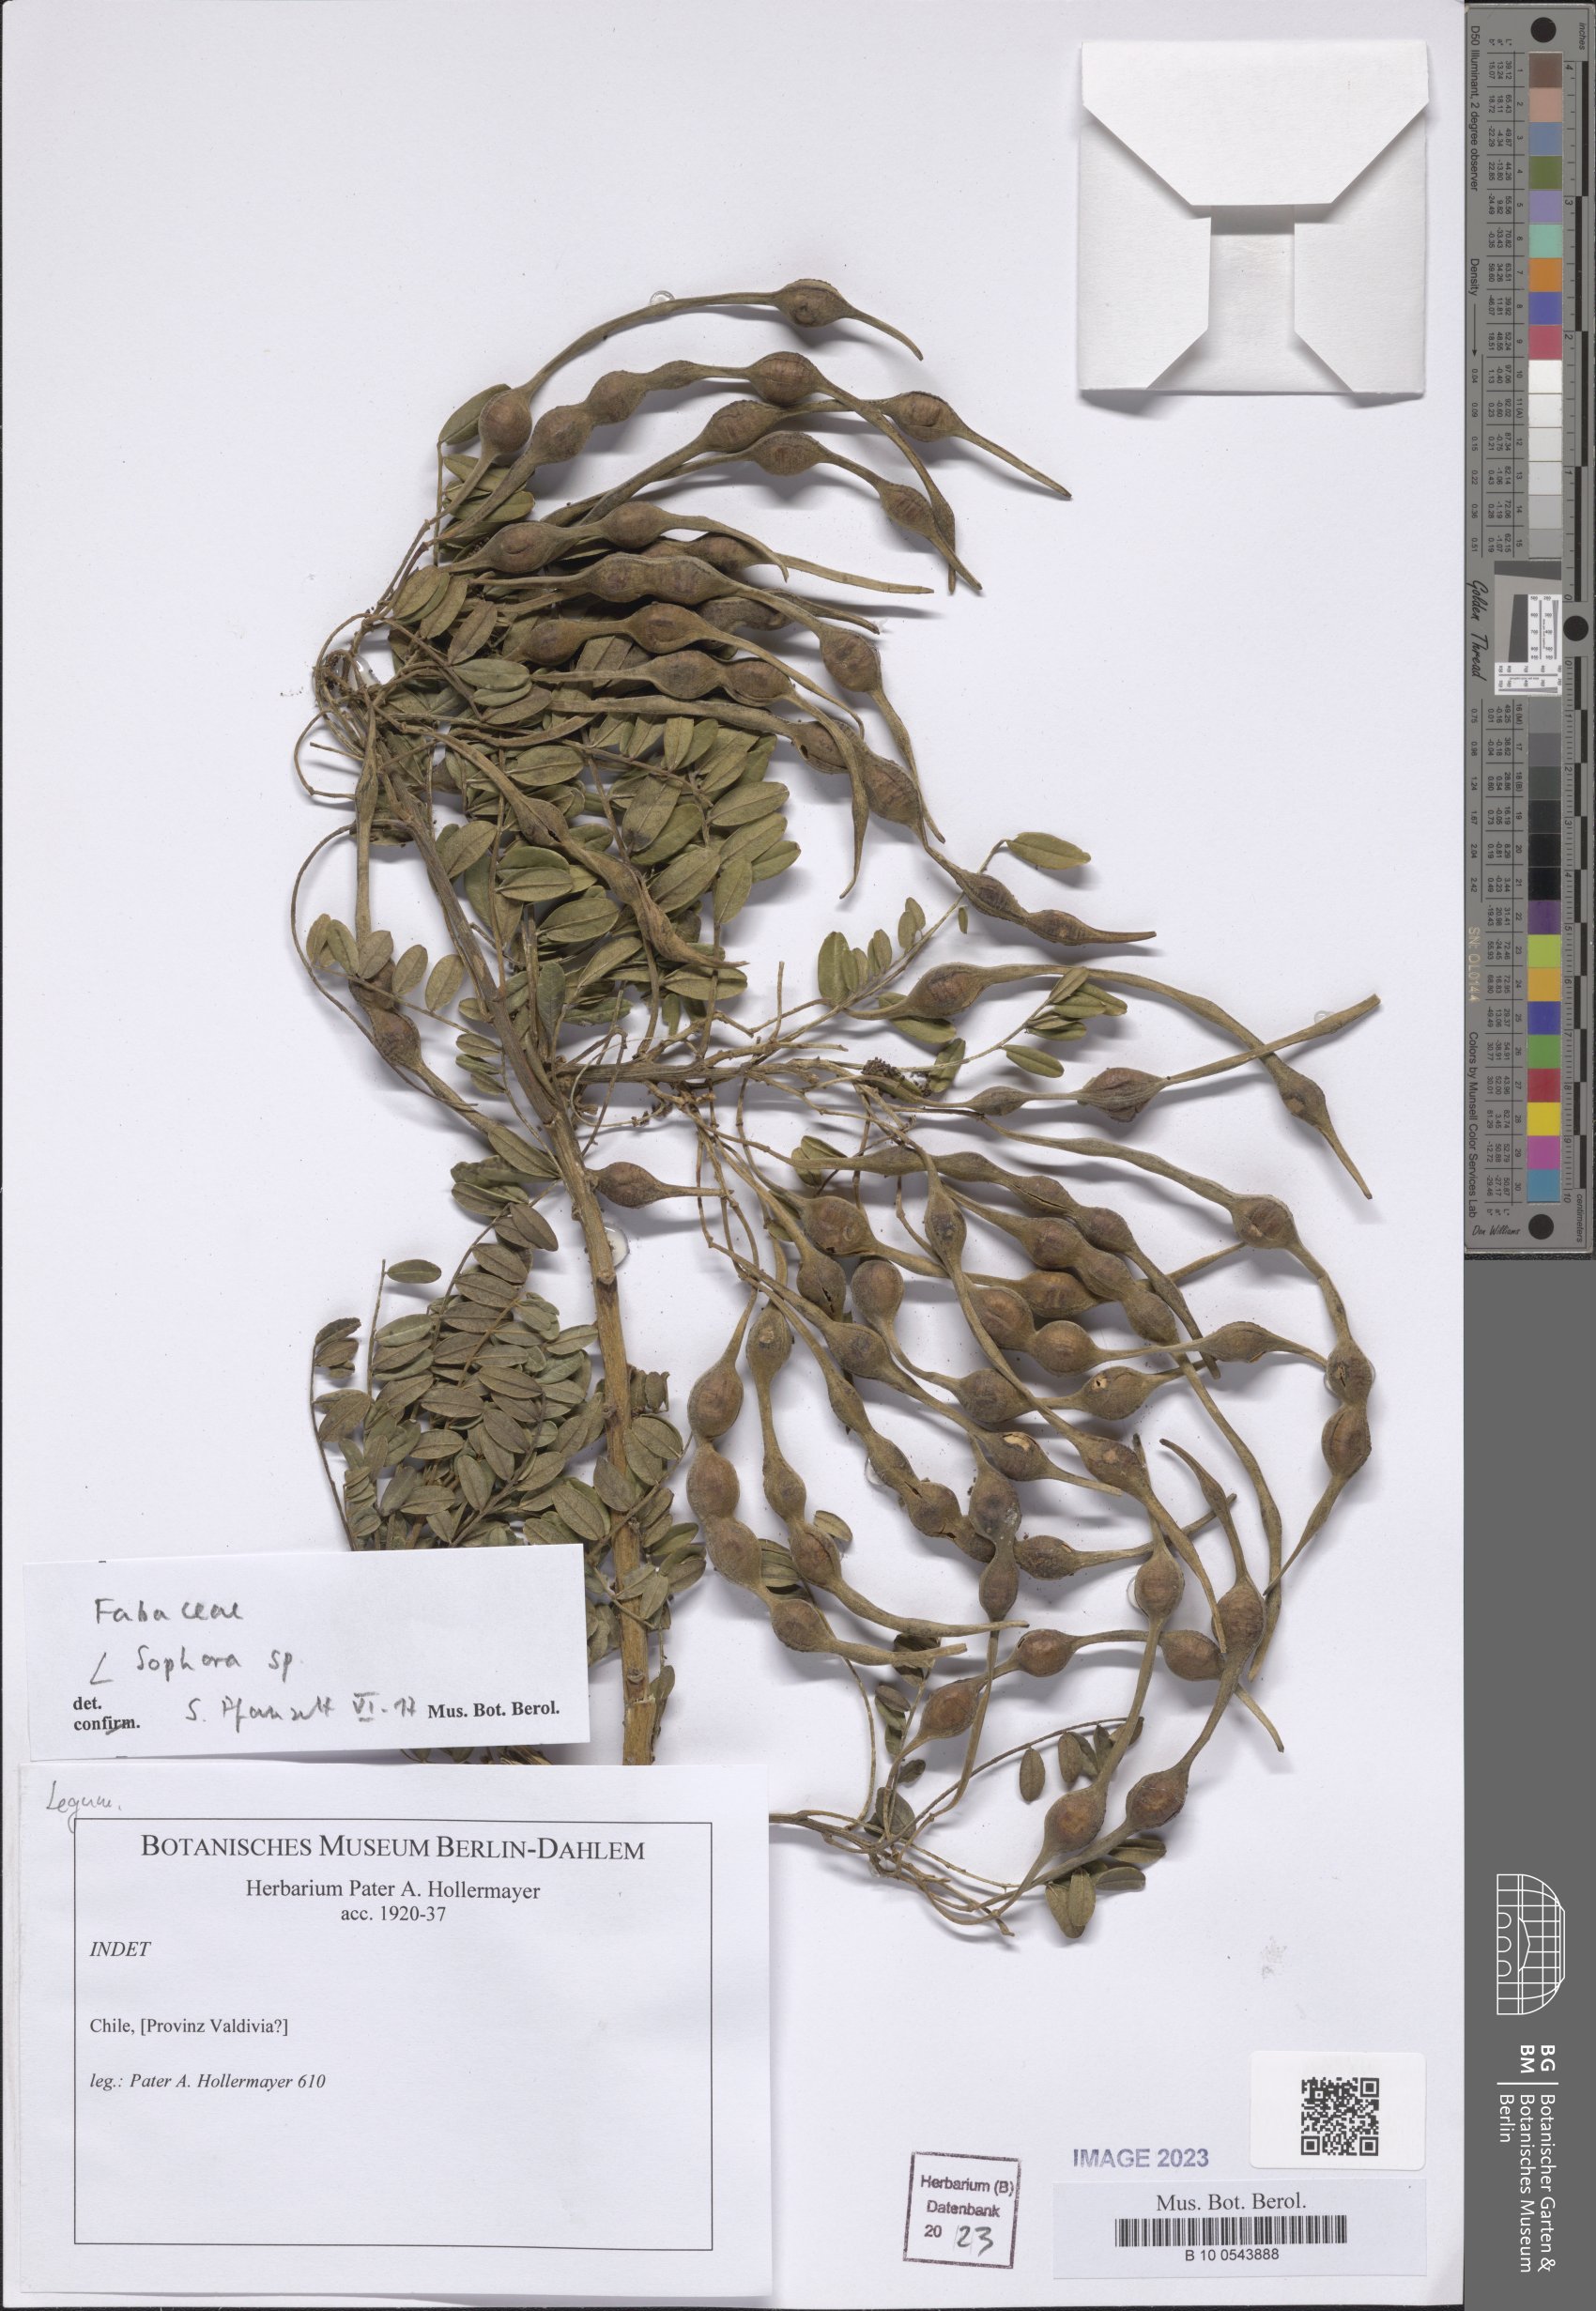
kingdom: Plantae
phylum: Tracheophyta
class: Magnoliopsida
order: Fabales
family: Fabaceae
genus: Sophora
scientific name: Sophora
